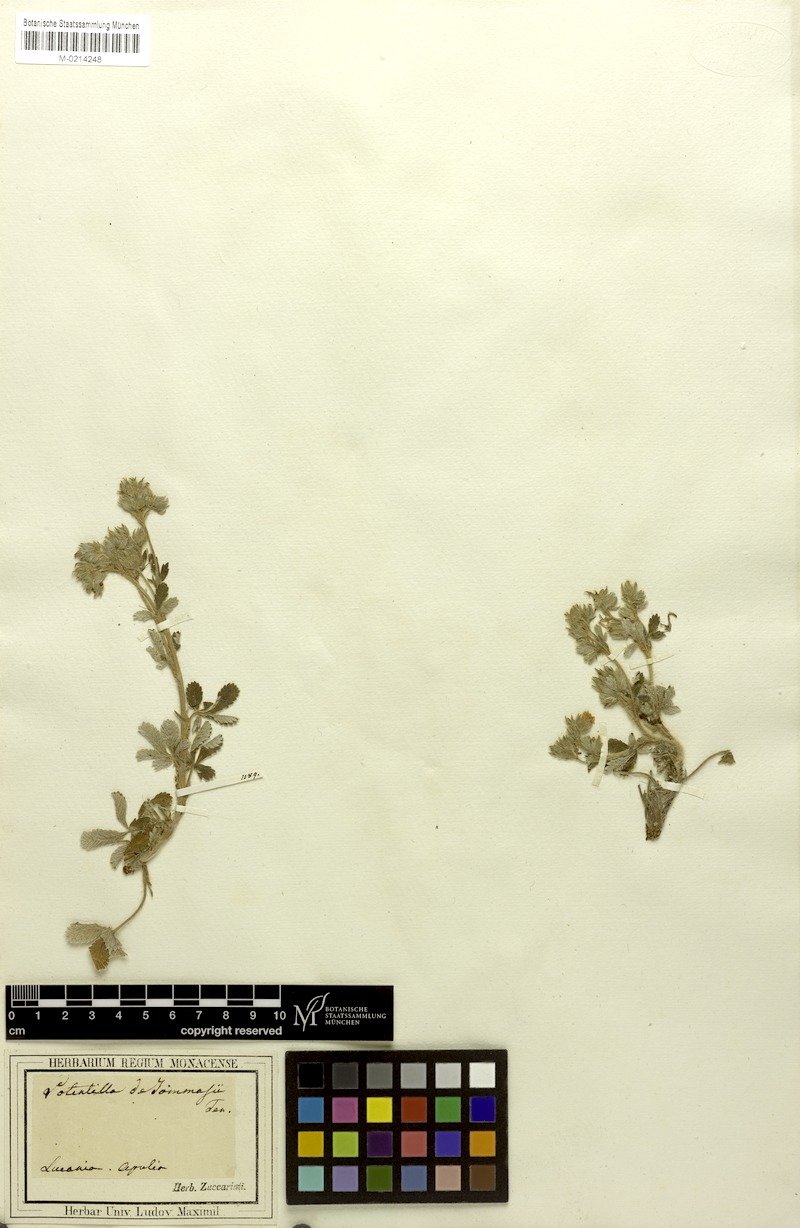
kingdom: Plantae
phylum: Tracheophyta
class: Magnoliopsida
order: Rosales
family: Rosaceae
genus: Potentilla
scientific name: Potentilla detommasii
